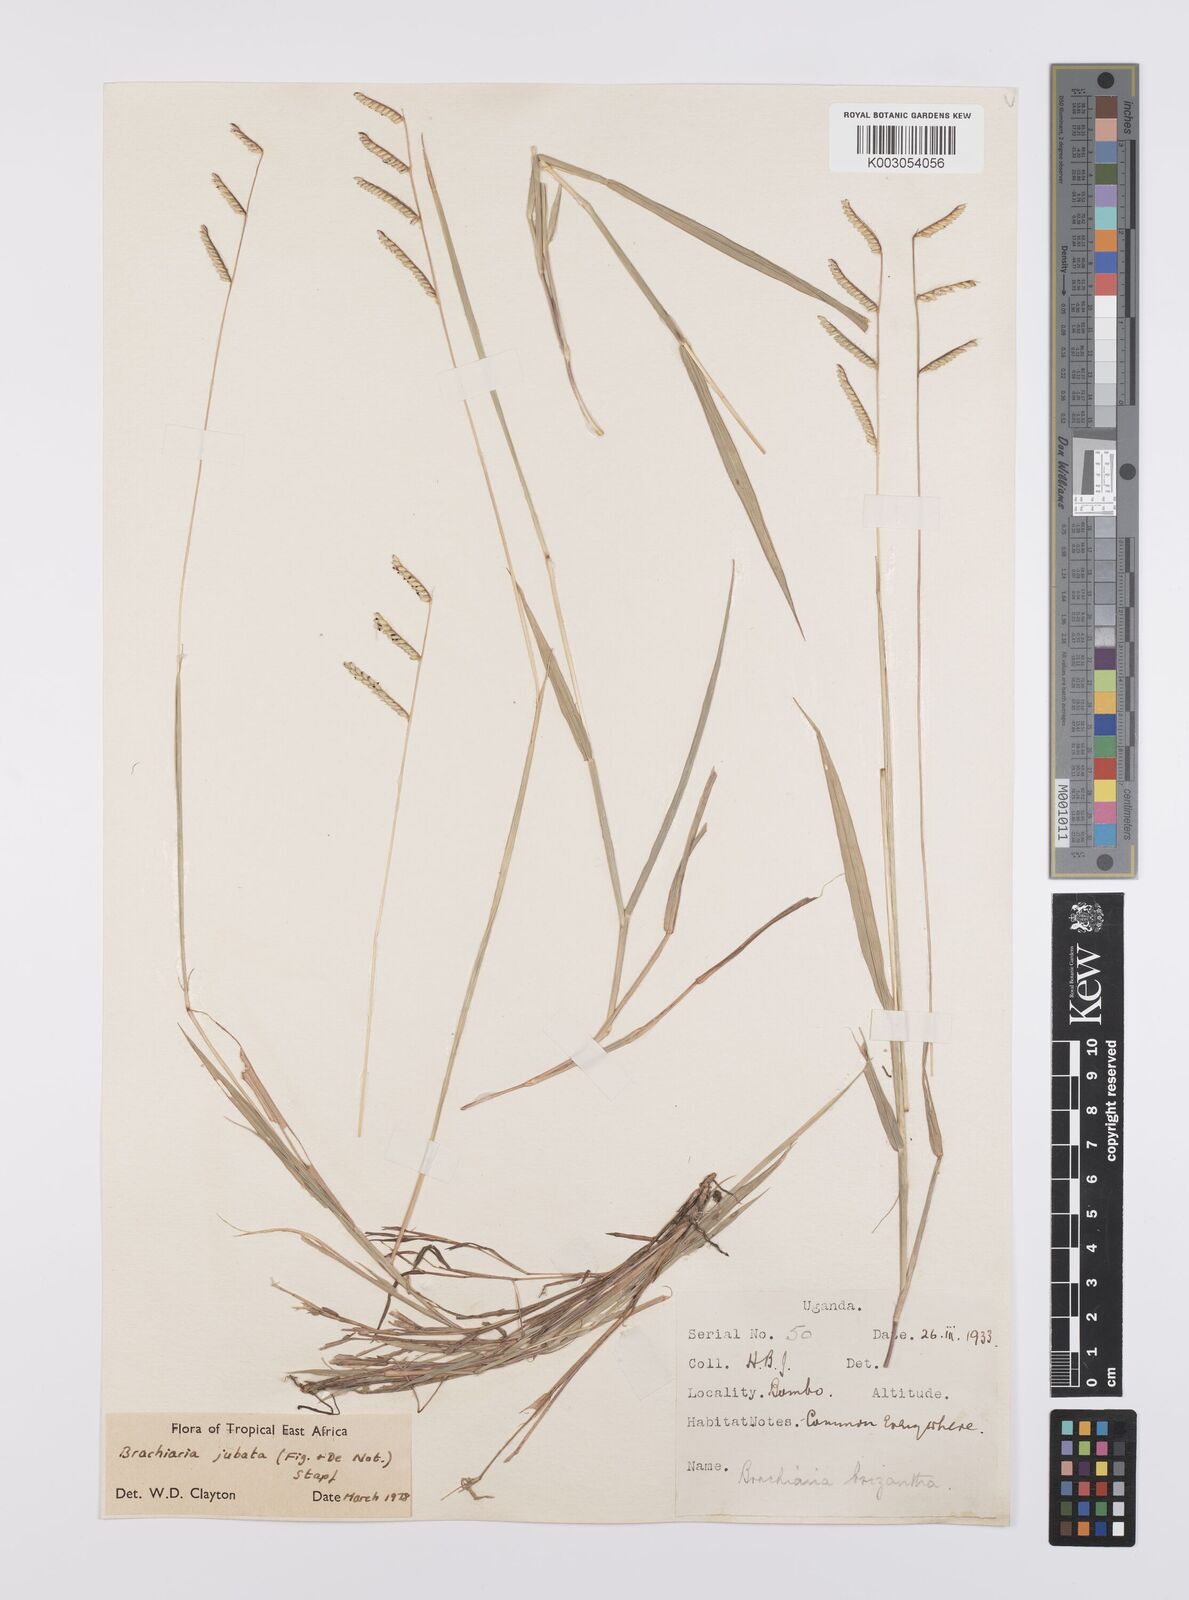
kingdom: Plantae
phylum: Tracheophyta
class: Liliopsida
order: Poales
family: Poaceae
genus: Urochloa
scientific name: Urochloa jubata
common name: Buffalograss
